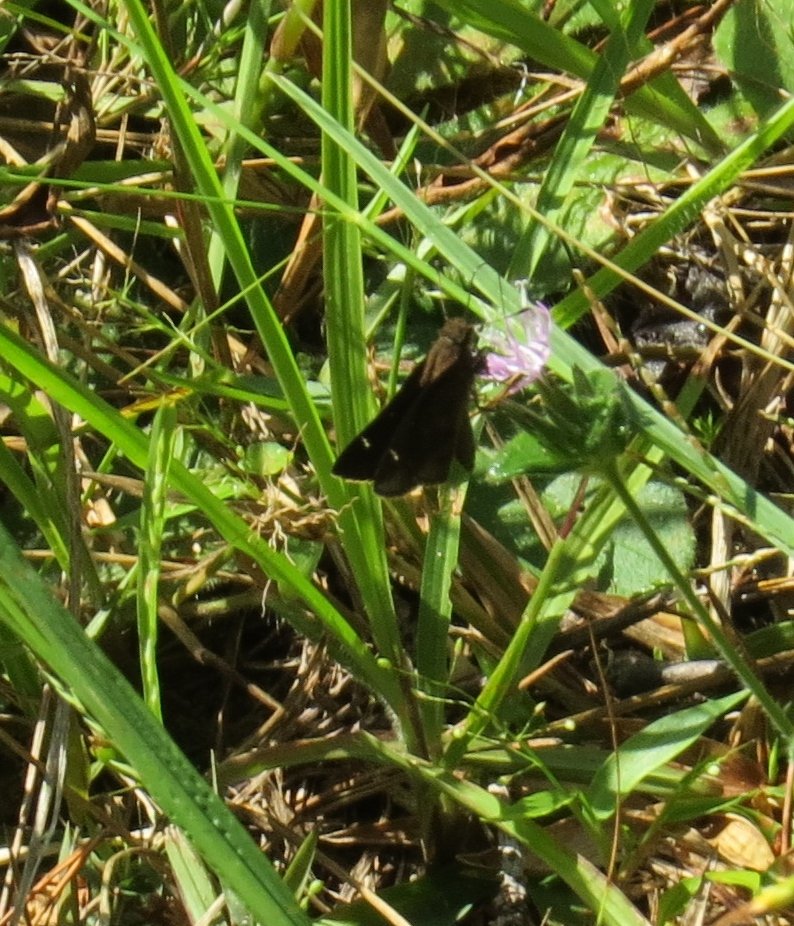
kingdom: Animalia
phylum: Arthropoda
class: Insecta
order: Lepidoptera
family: Hesperiidae
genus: Lerema
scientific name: Lerema accius
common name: Clouded Skipper
